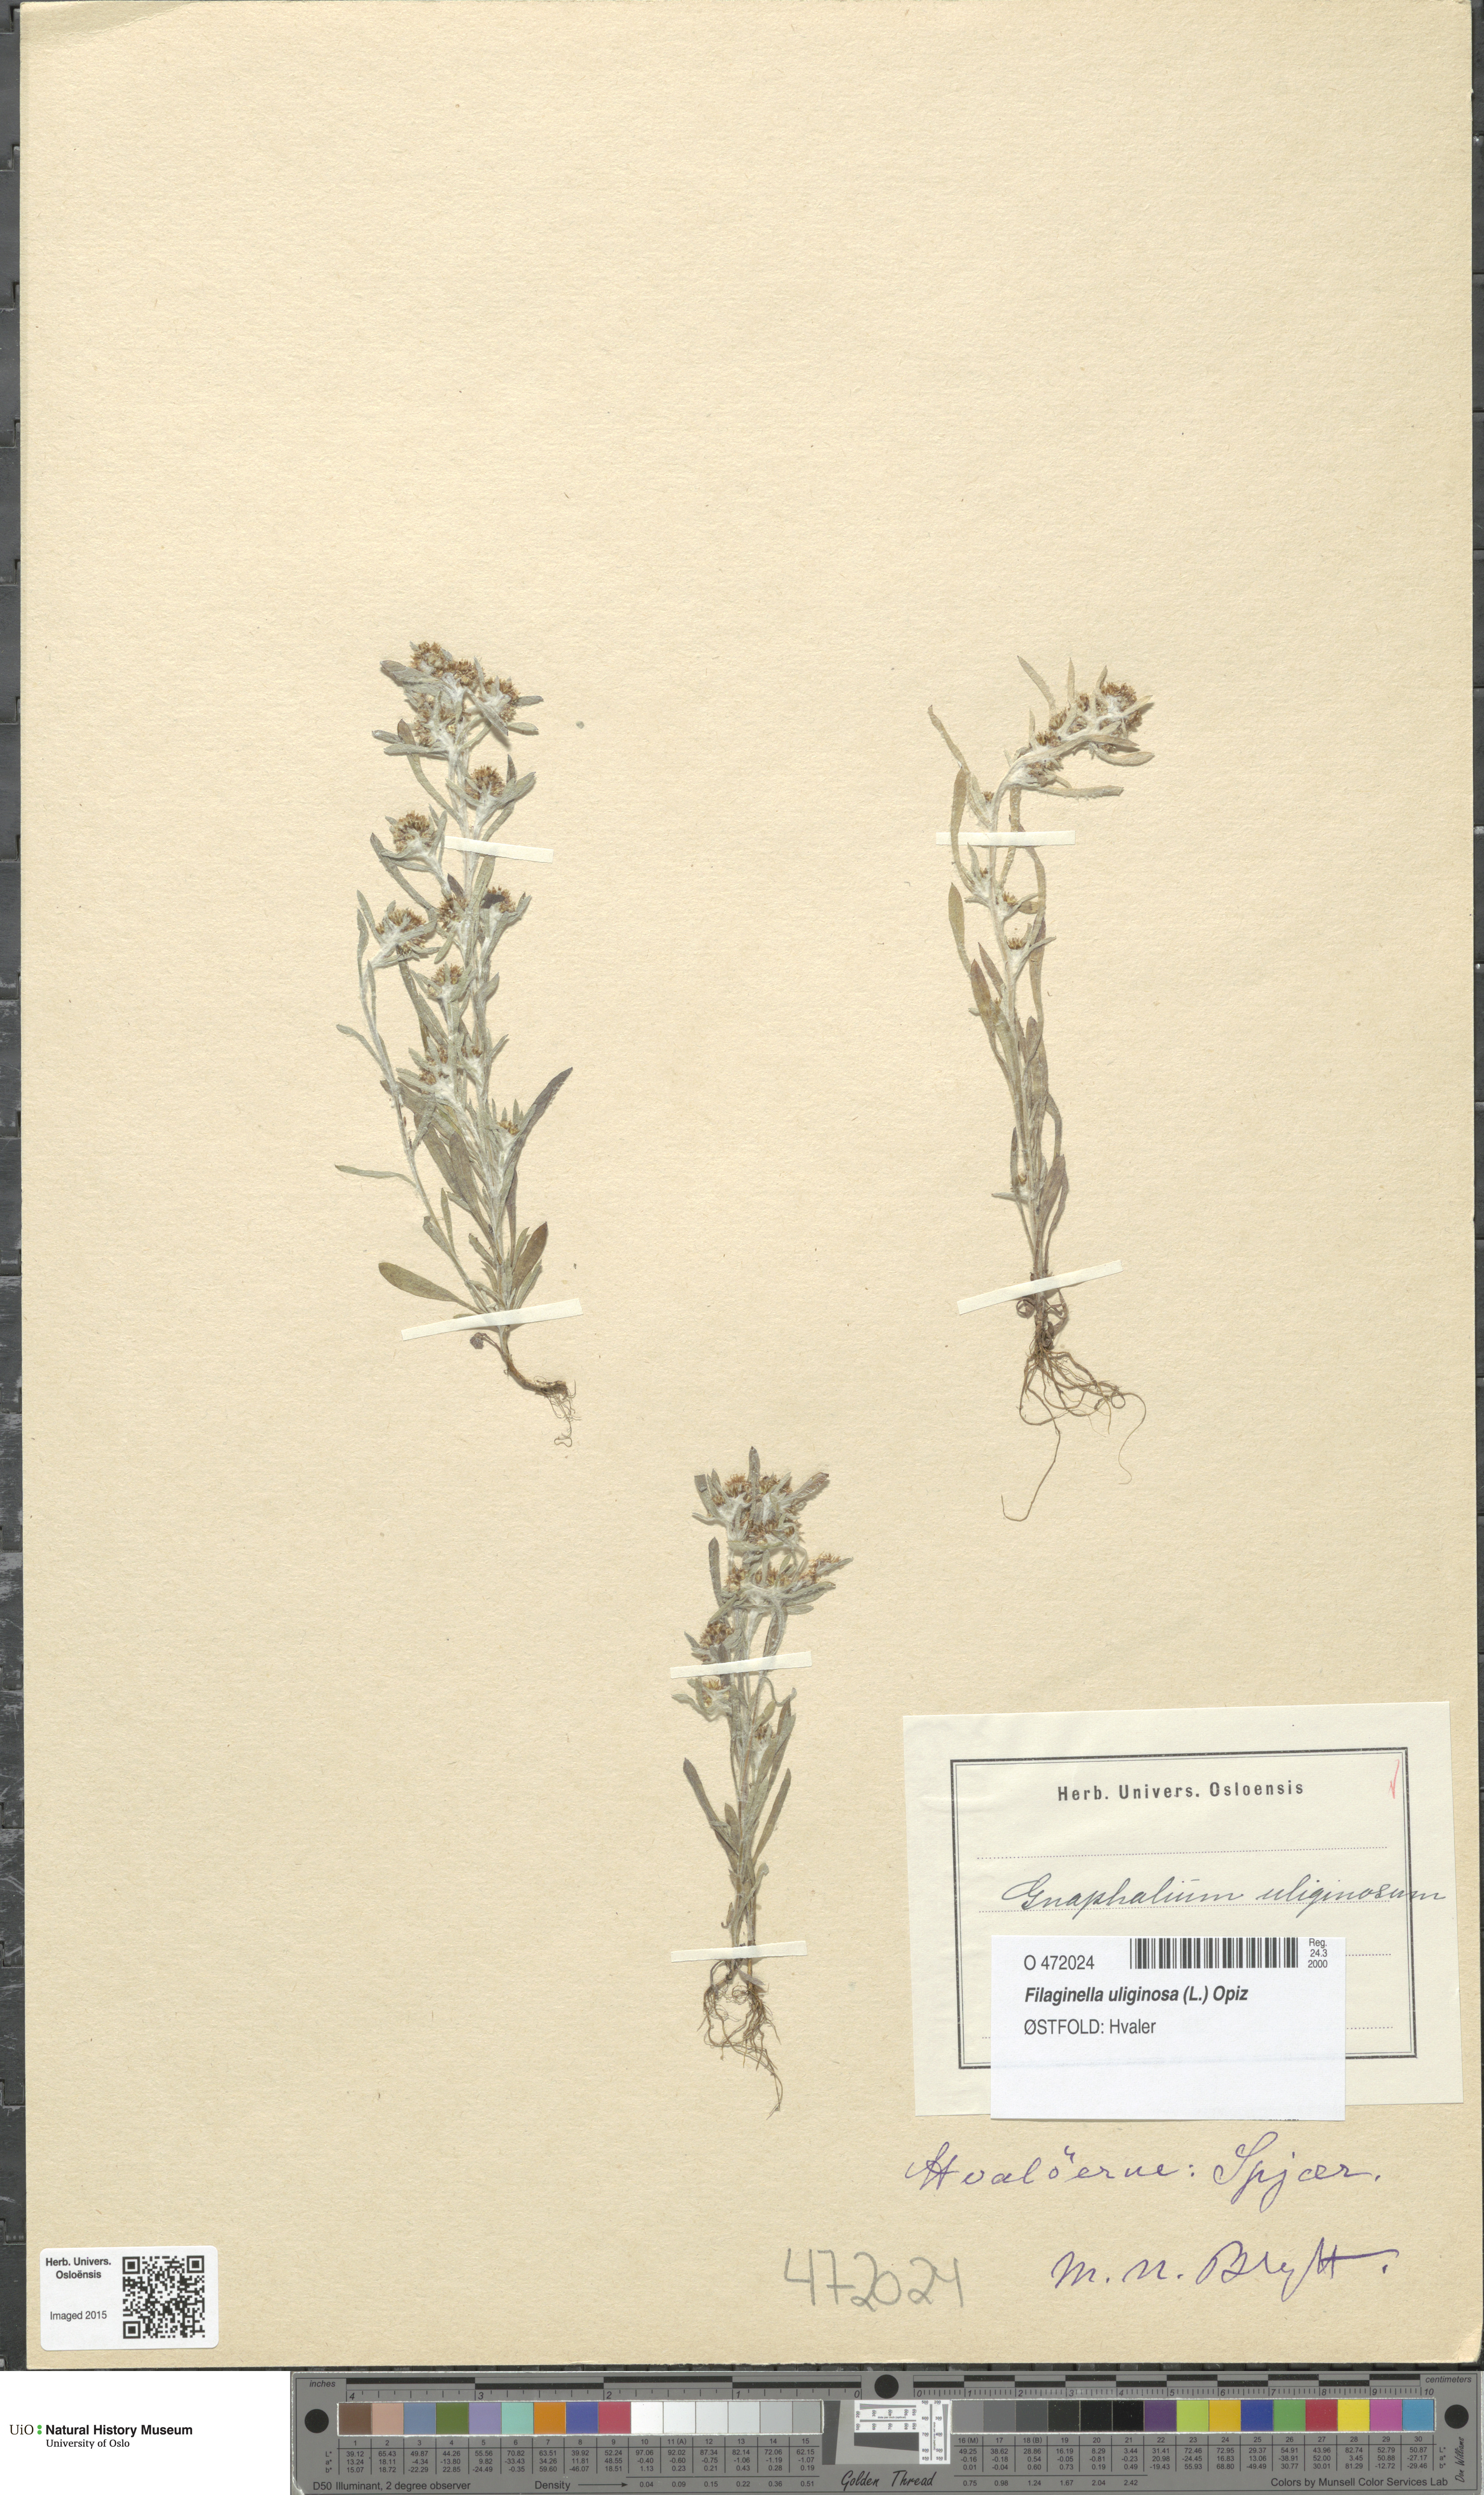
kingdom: Plantae
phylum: Tracheophyta
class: Magnoliopsida
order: Asterales
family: Asteraceae
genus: Gnaphalium
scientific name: Gnaphalium uliginosum
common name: Marsh cudweed
